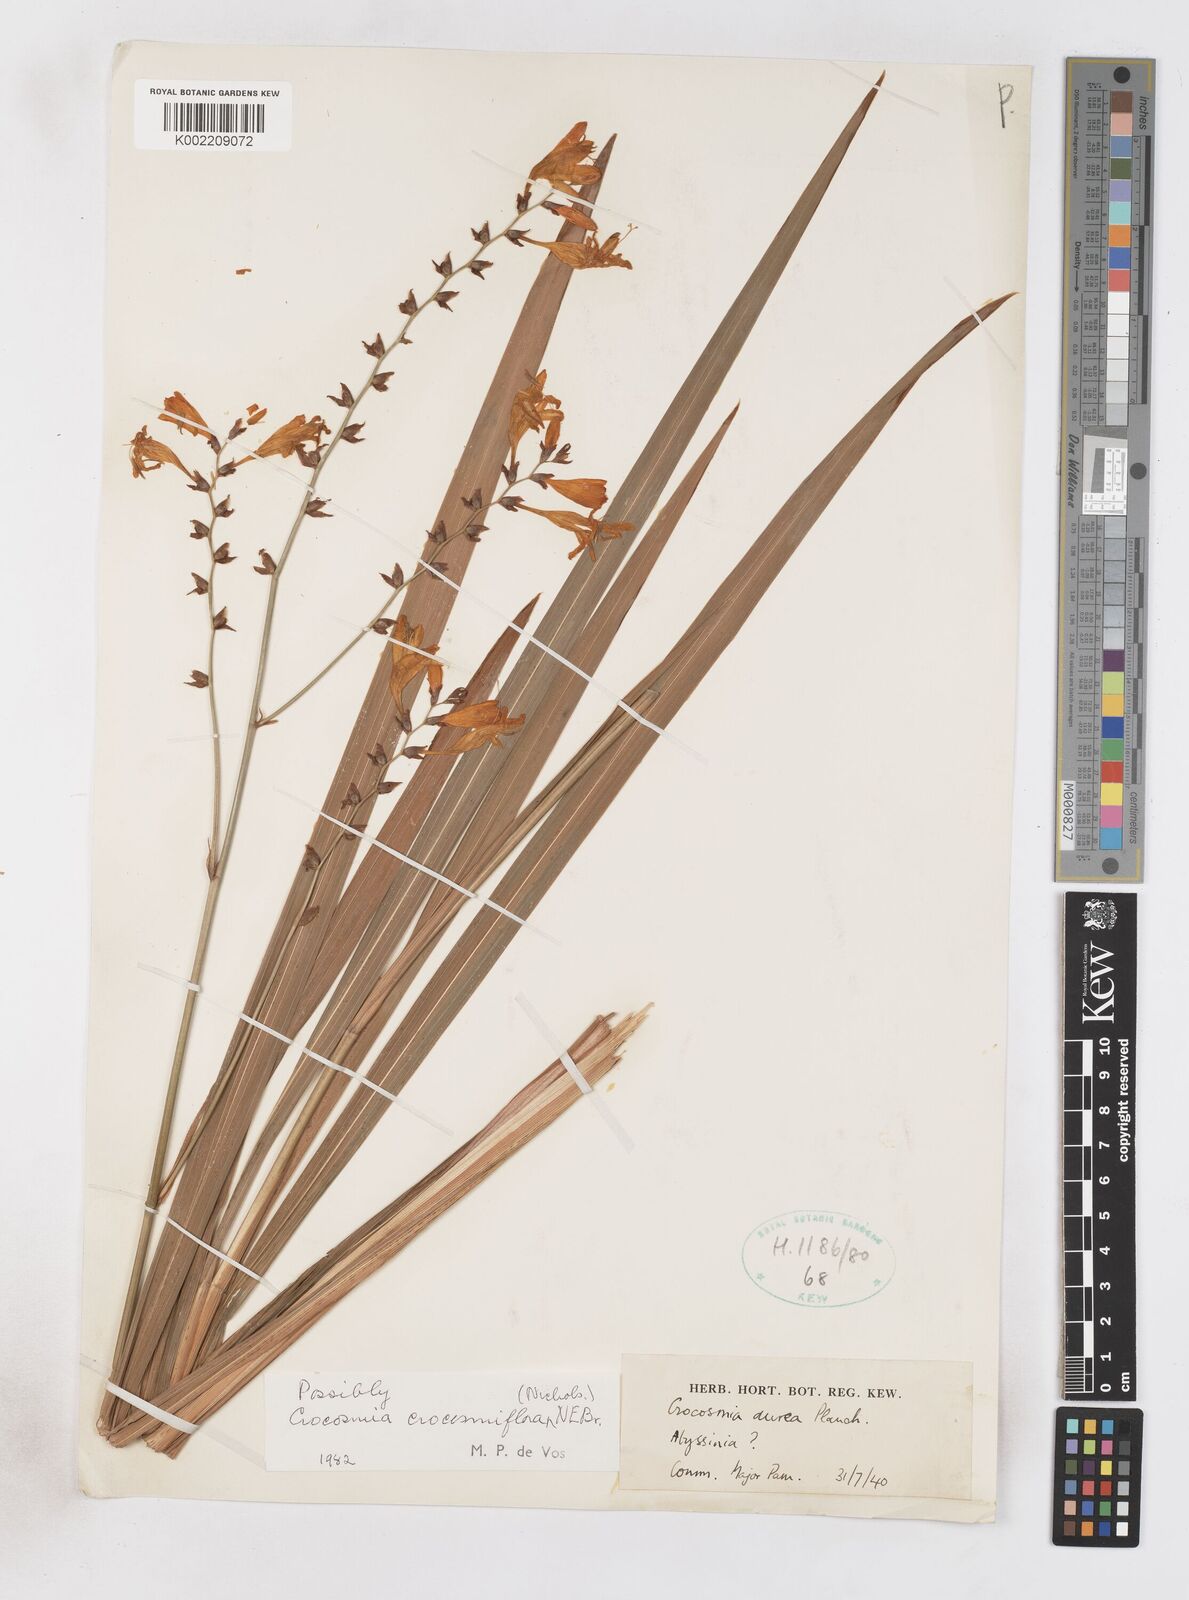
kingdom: Plantae
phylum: Tracheophyta
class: Liliopsida
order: Asparagales
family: Iridaceae
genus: Crocosmia
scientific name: Crocosmia crocosmiiflora
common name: Montbretia
